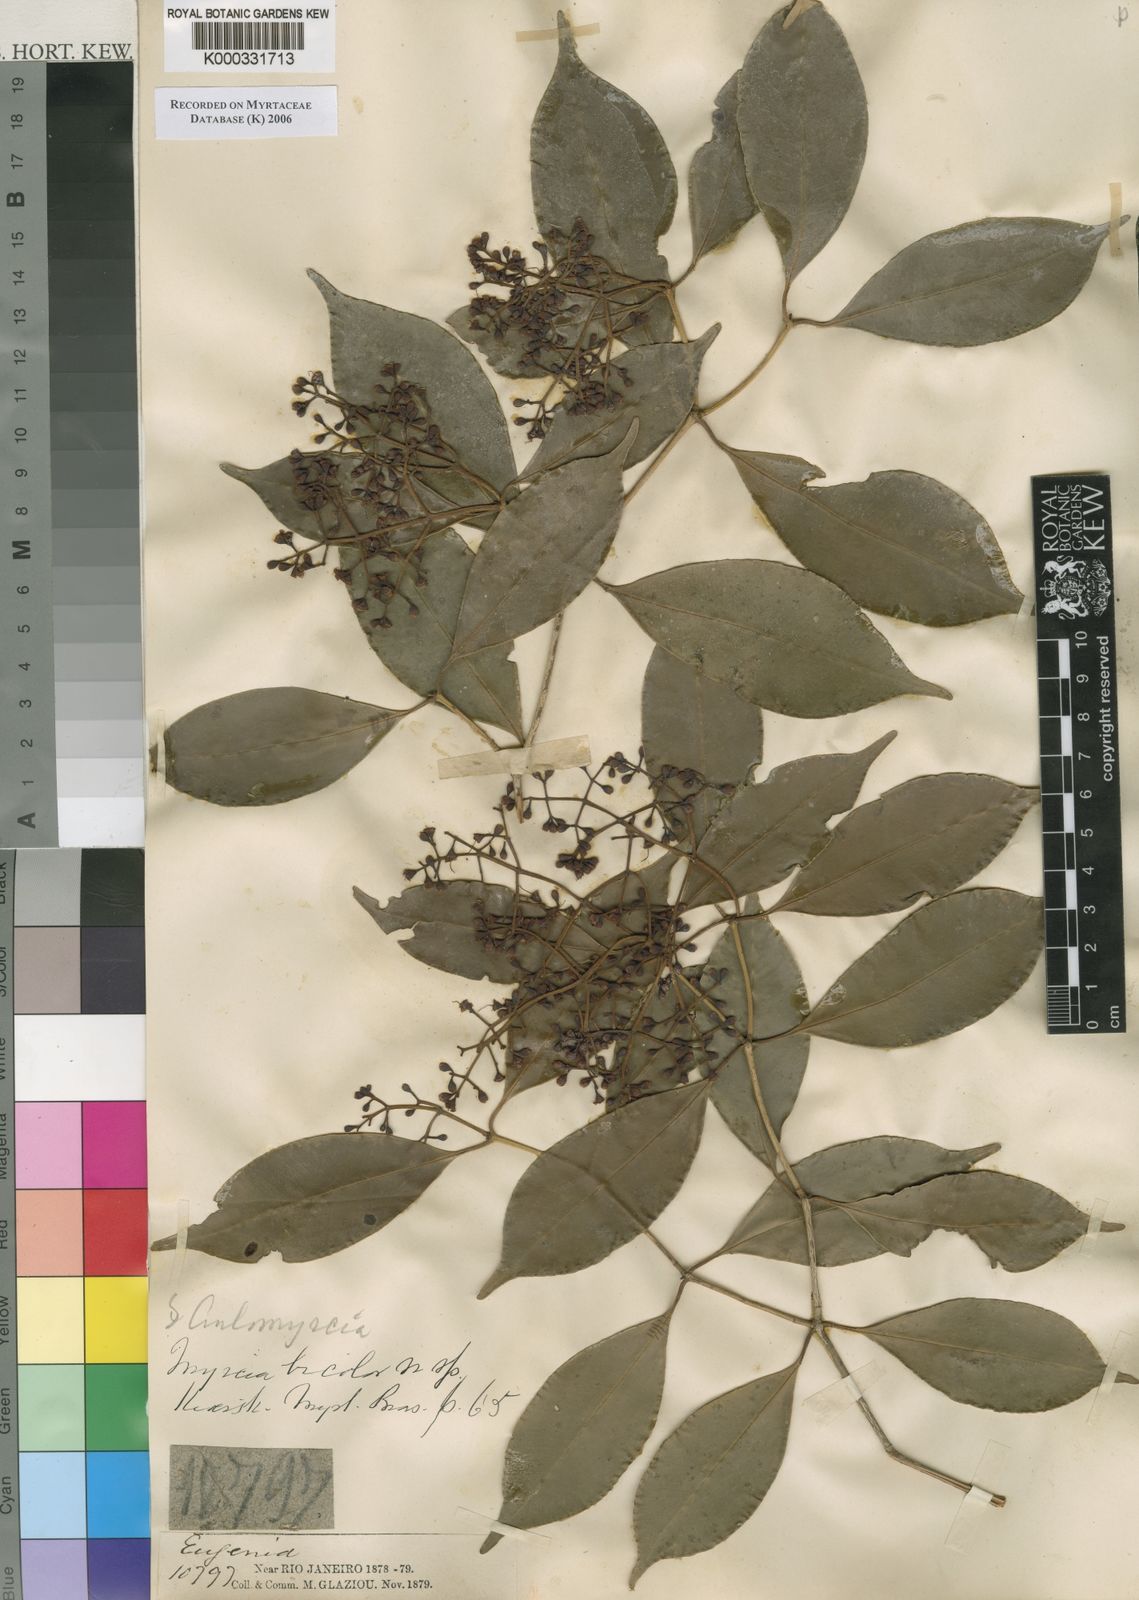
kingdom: Plantae
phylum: Tracheophyta
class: Magnoliopsida
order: Myrtales
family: Myrtaceae
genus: Myrcia
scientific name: Myrcia bicolor
